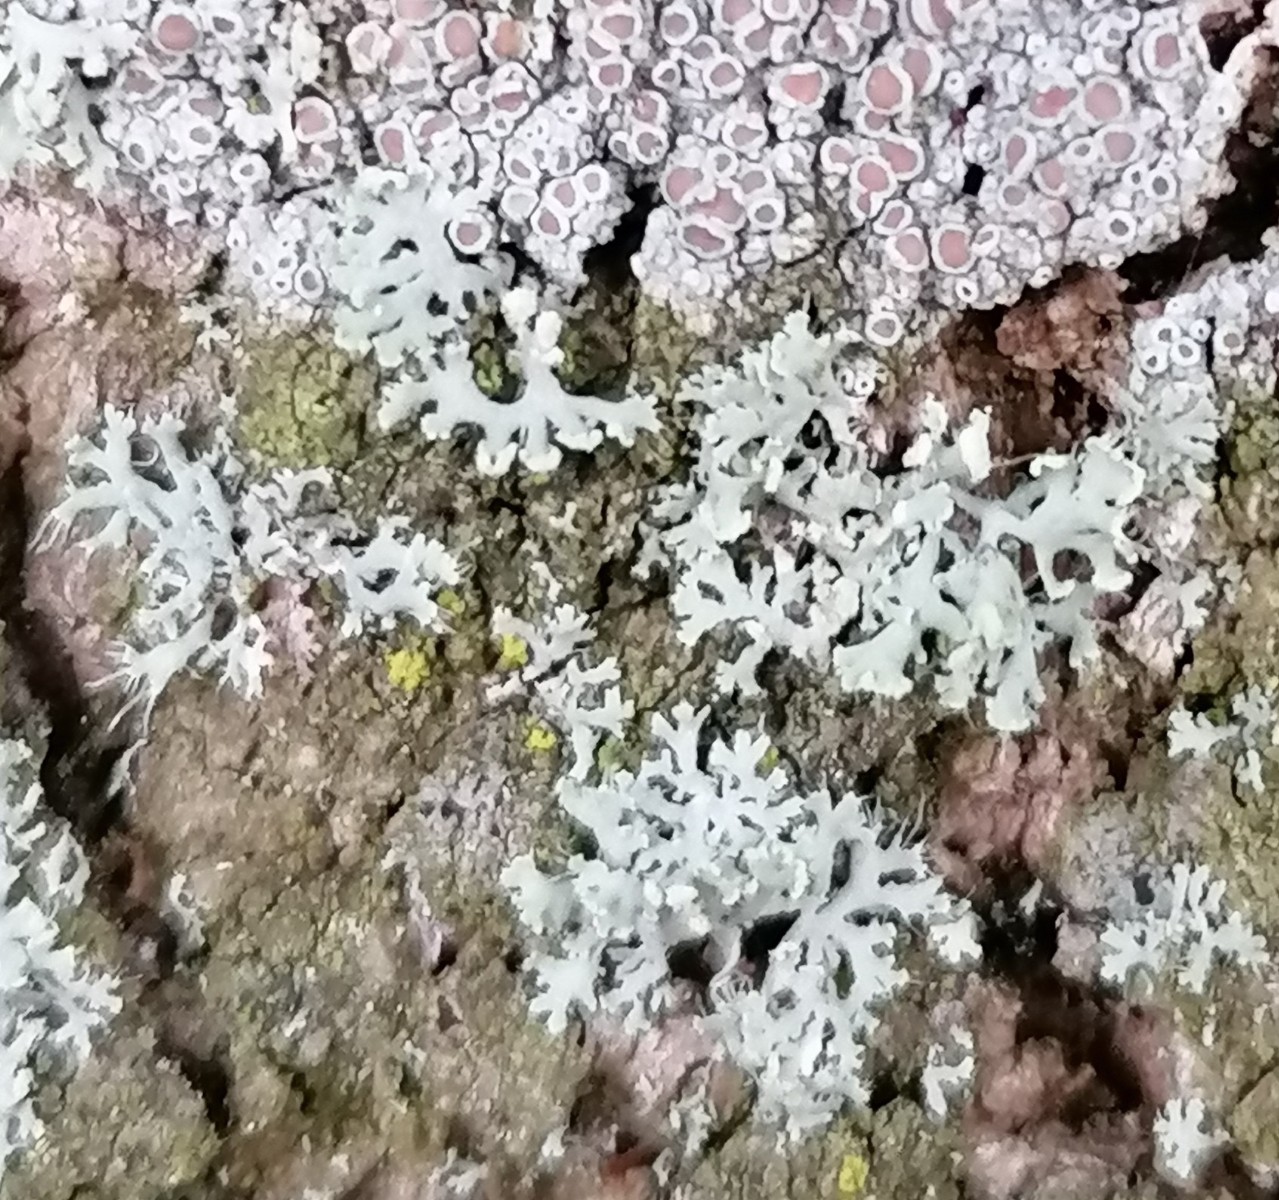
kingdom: Fungi
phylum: Ascomycota
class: Lecanoromycetes
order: Caliciales
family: Physciaceae
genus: Physcia
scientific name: Physcia tenella
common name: spæd rosetlav
